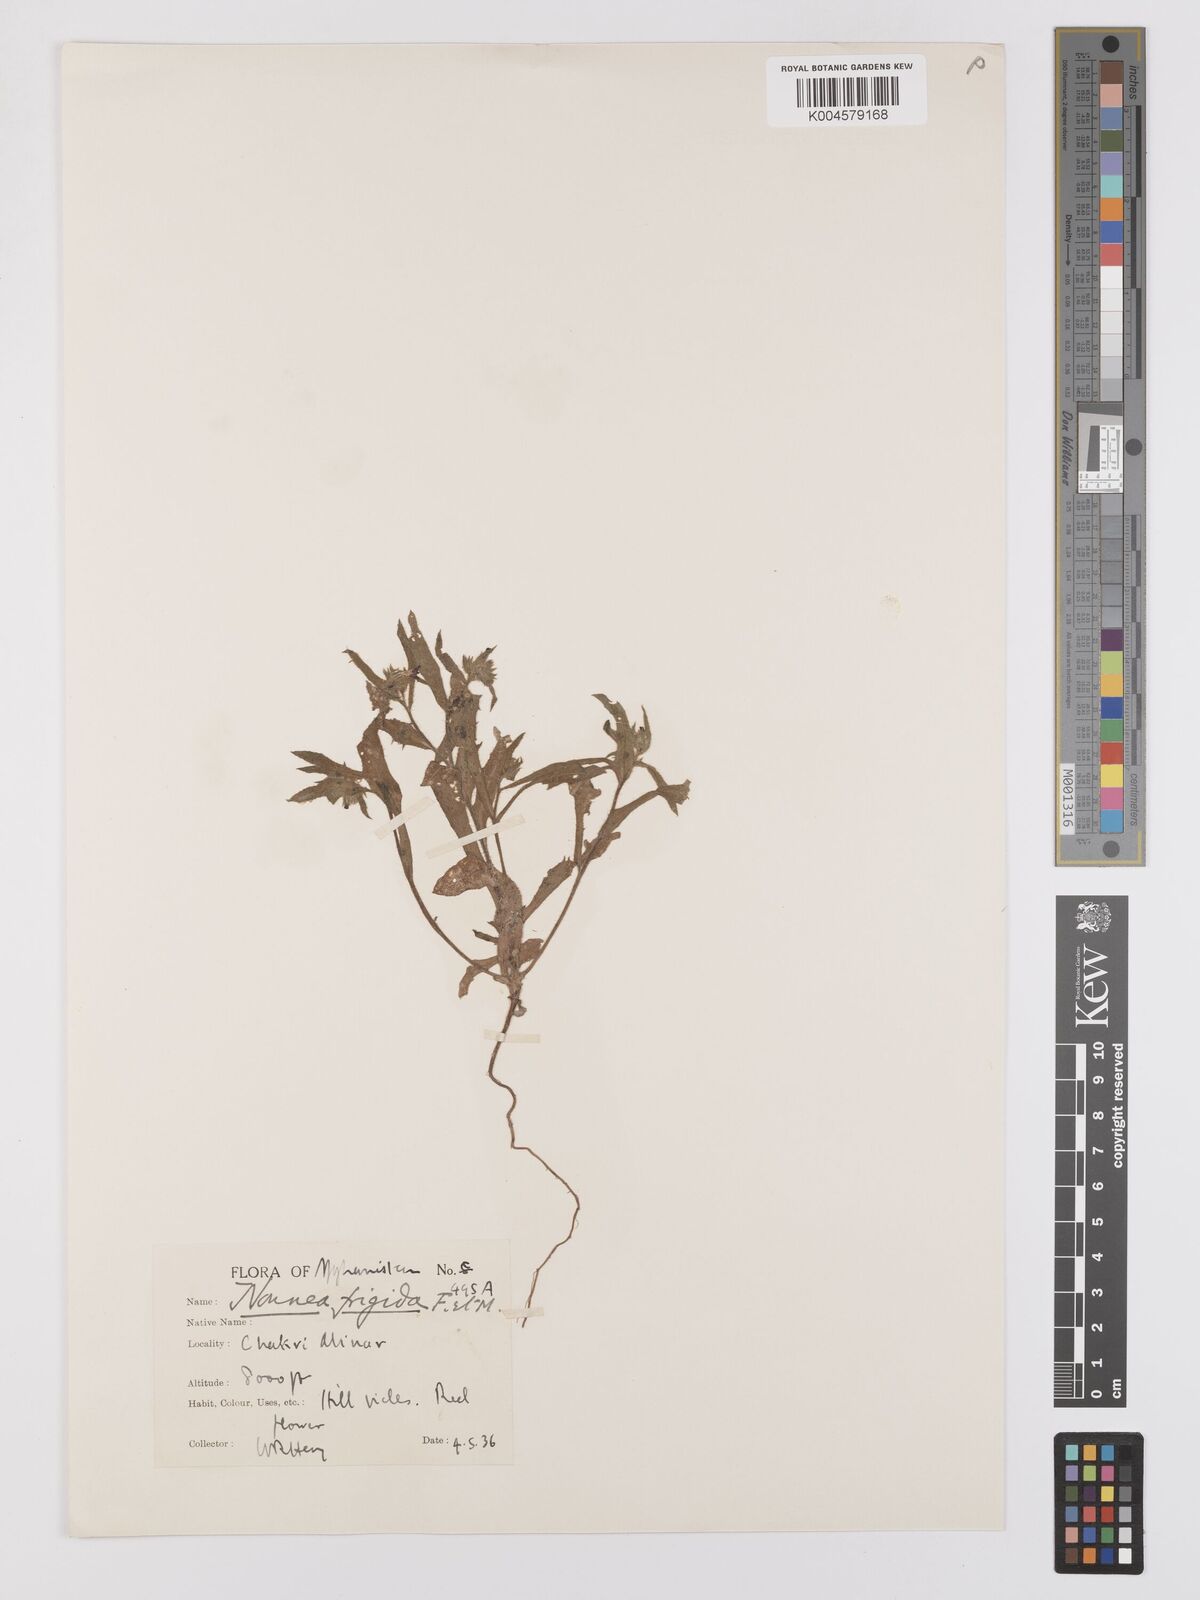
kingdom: Plantae
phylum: Tracheophyta
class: Magnoliopsida
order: Boraginales
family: Boraginaceae
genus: Nonea
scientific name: Nonea
